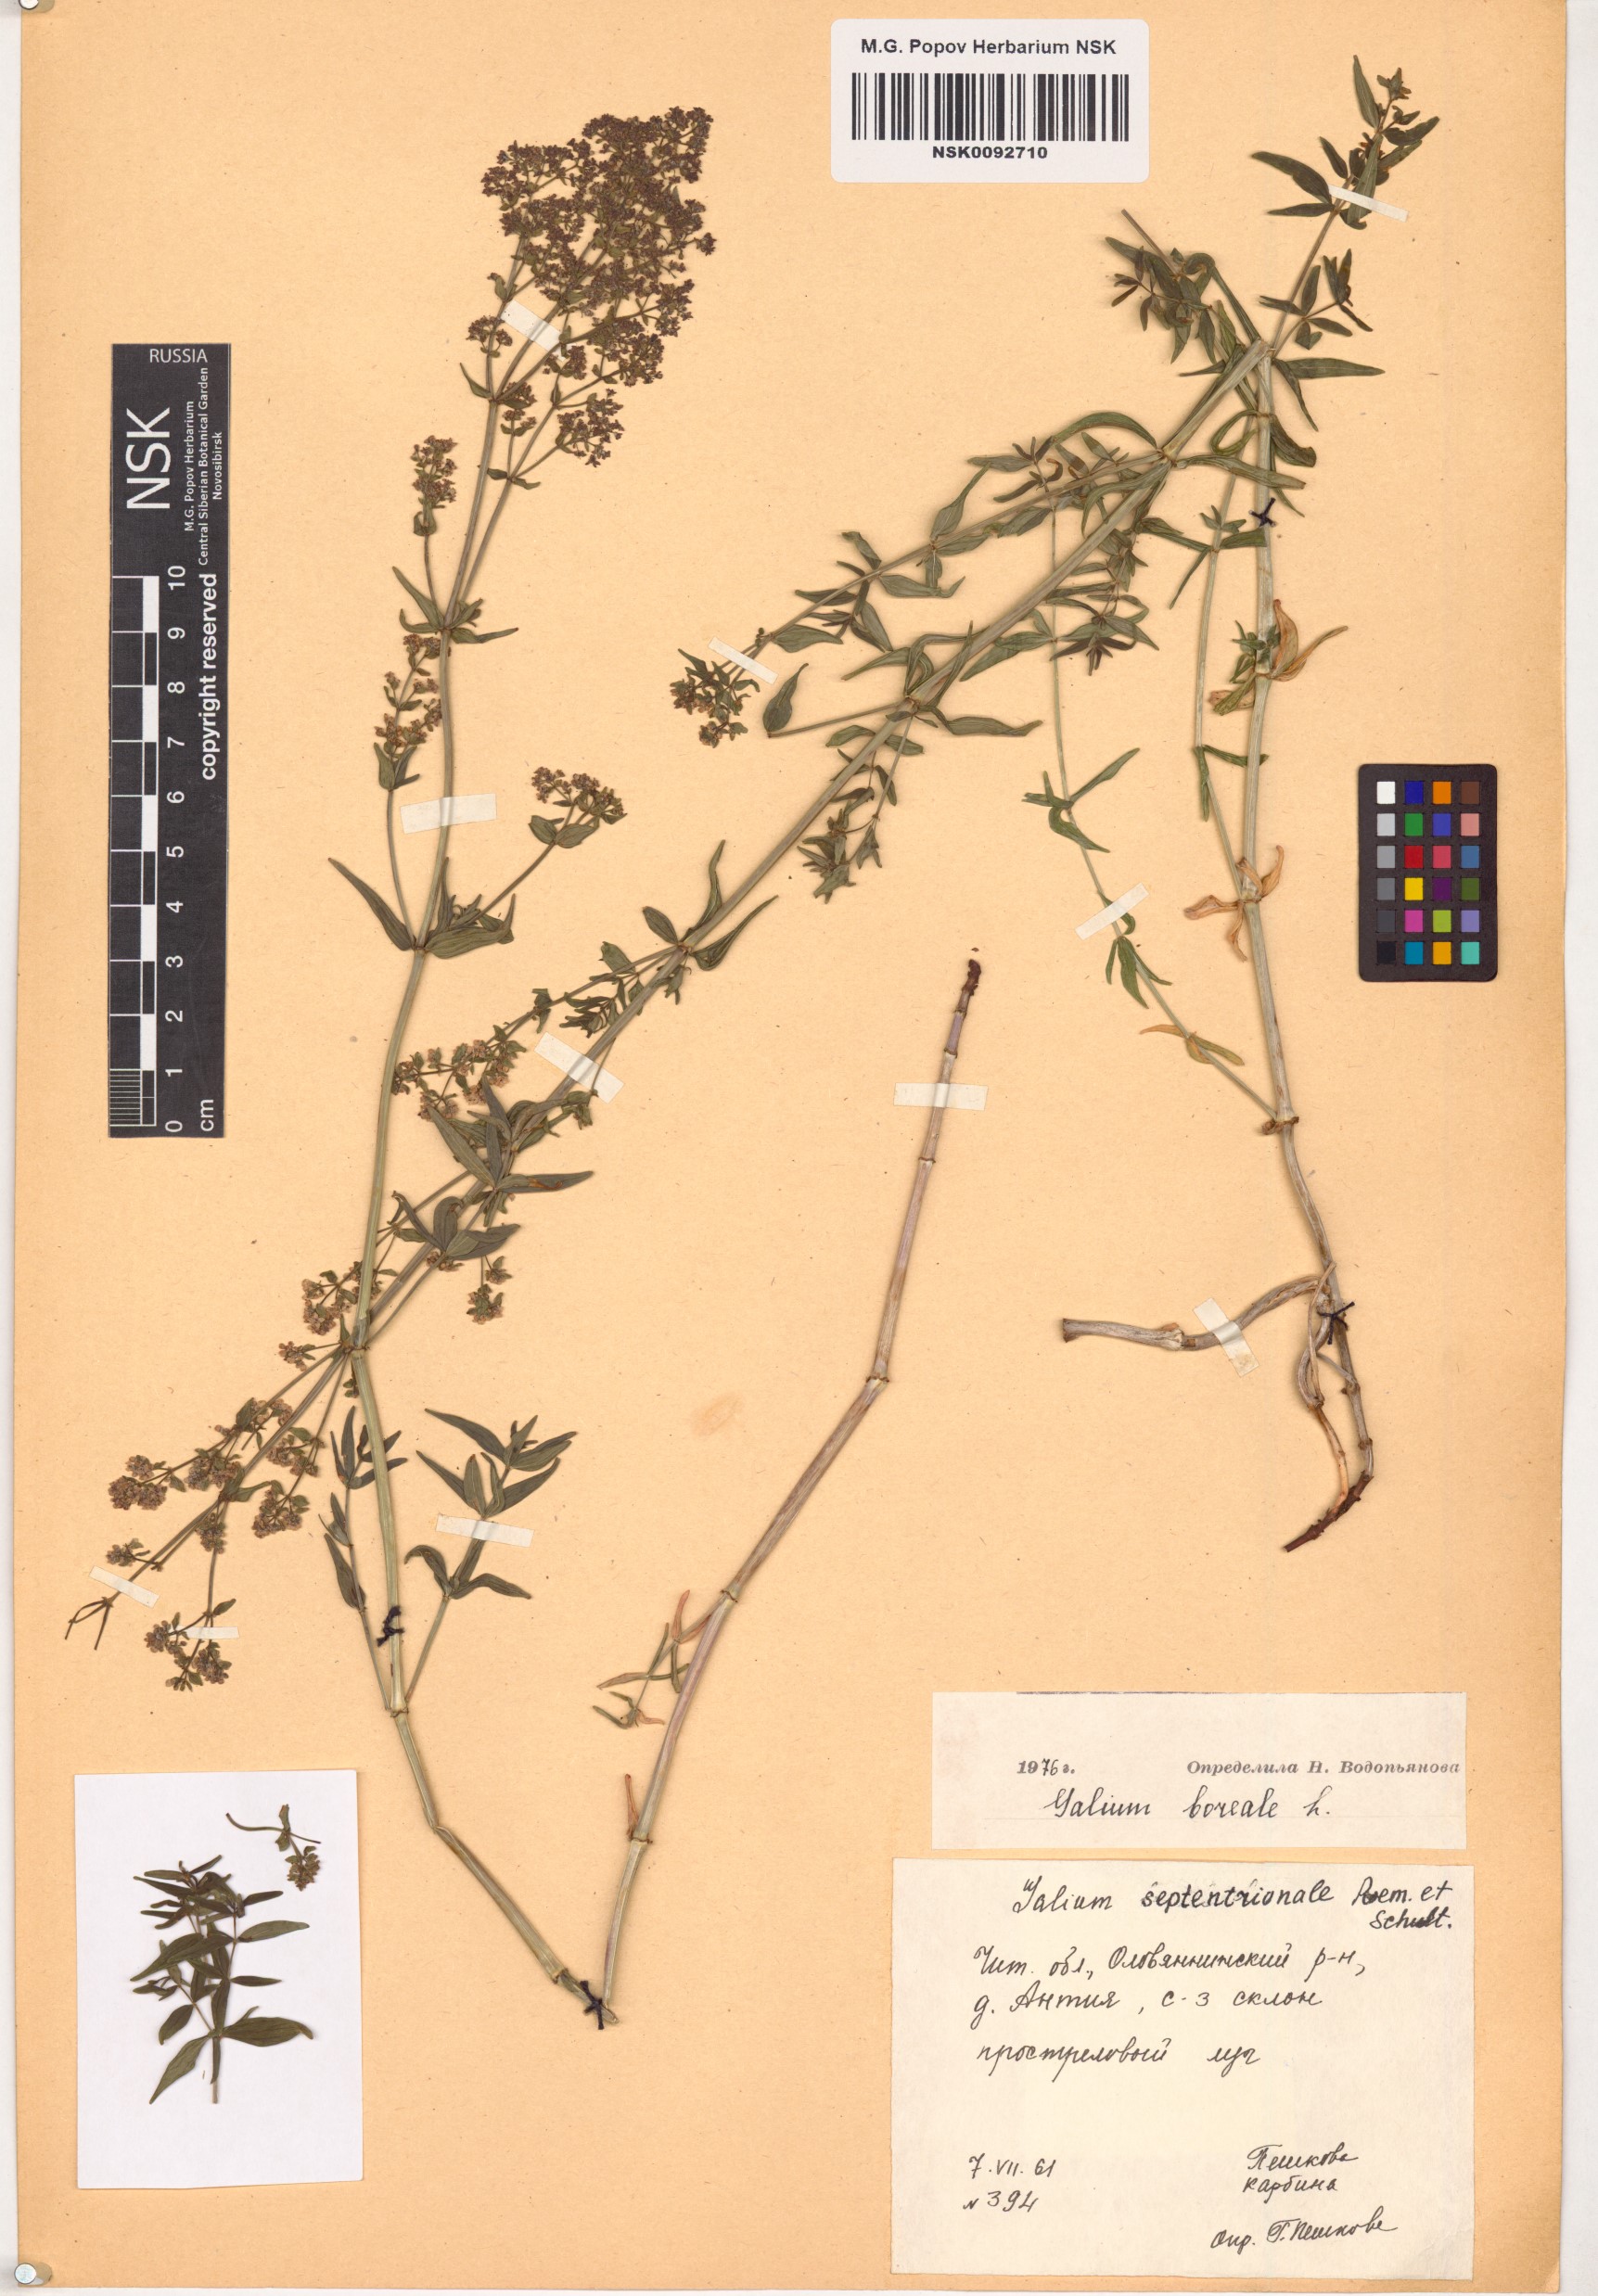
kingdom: Plantae
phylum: Tracheophyta
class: Magnoliopsida
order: Gentianales
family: Rubiaceae
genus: Galium
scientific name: Galium boreale
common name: Northern bedstraw
